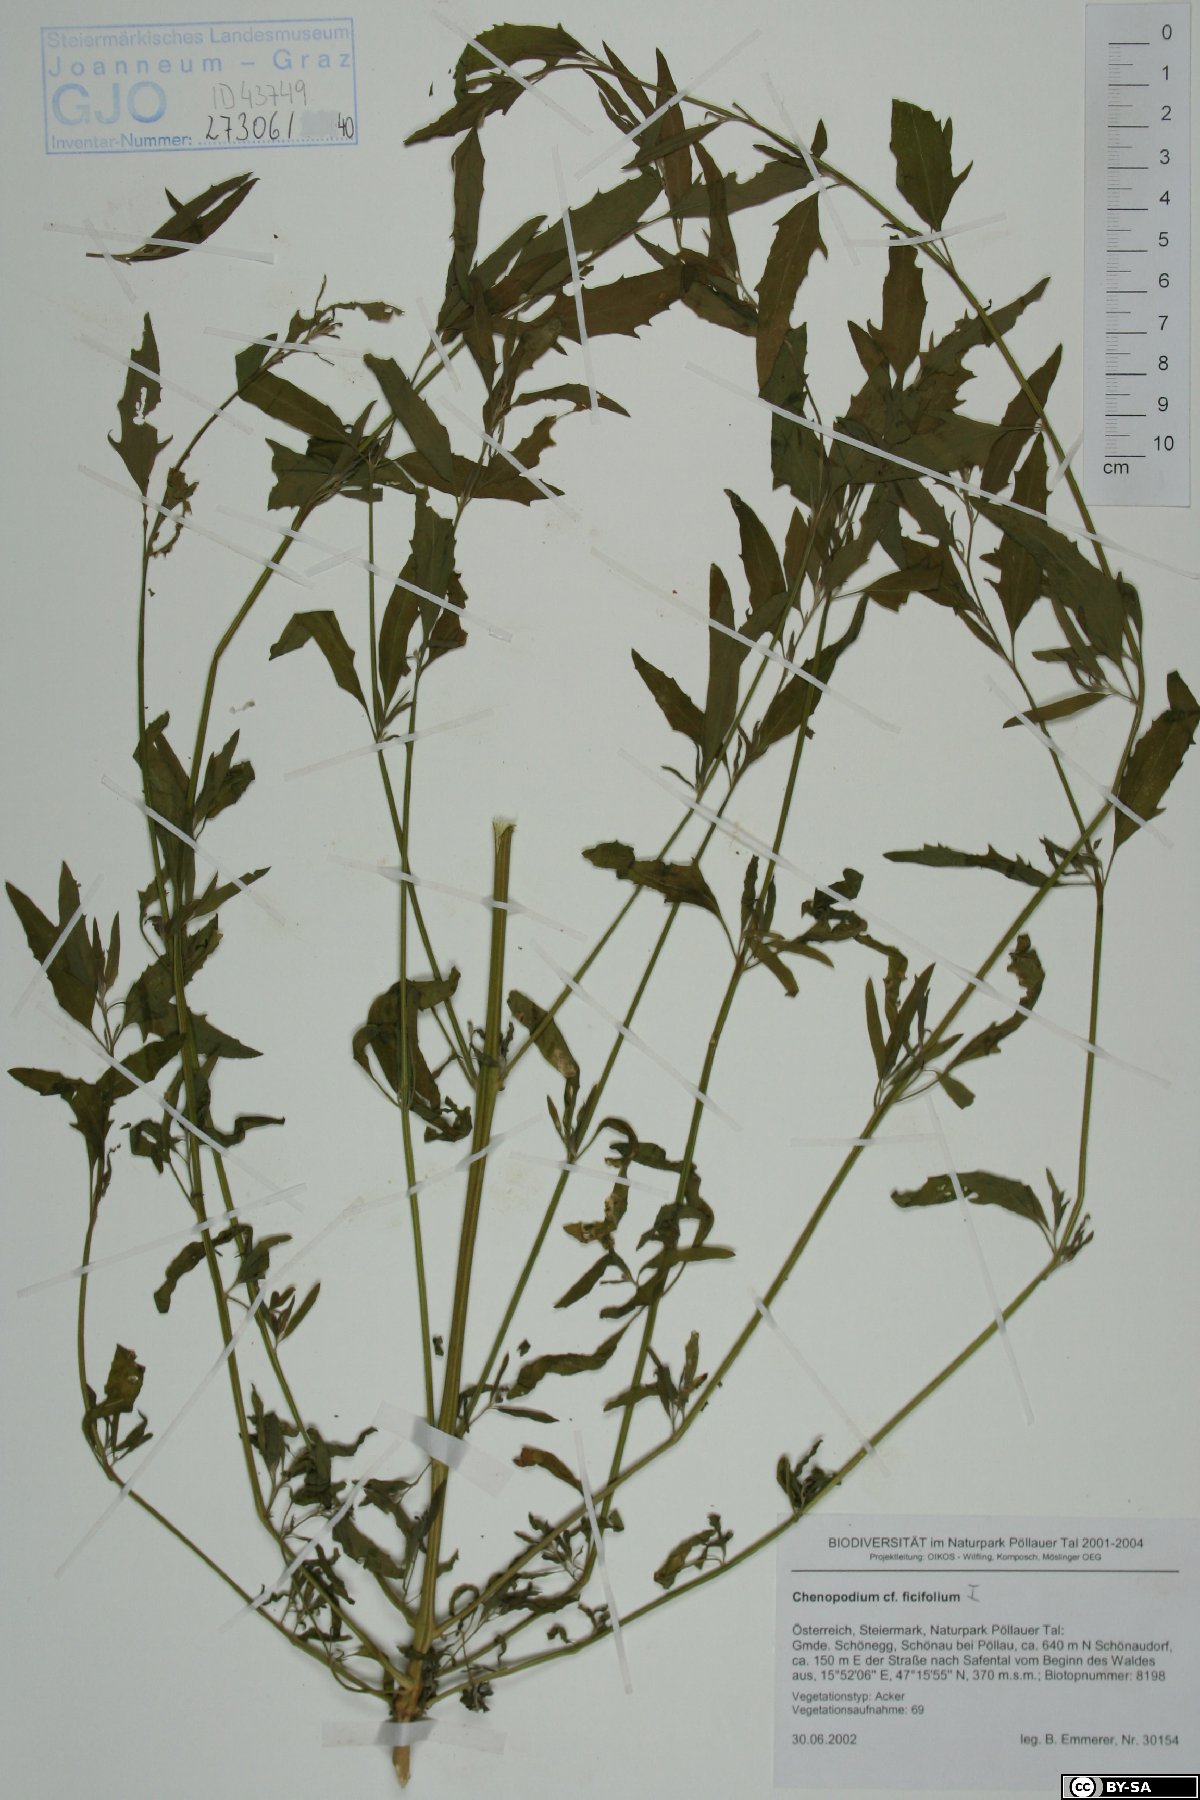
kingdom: Plantae
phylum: Tracheophyta
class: Magnoliopsida
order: Caryophyllales
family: Amaranthaceae
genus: Atriplex
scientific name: Atriplex patula
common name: Common orache
